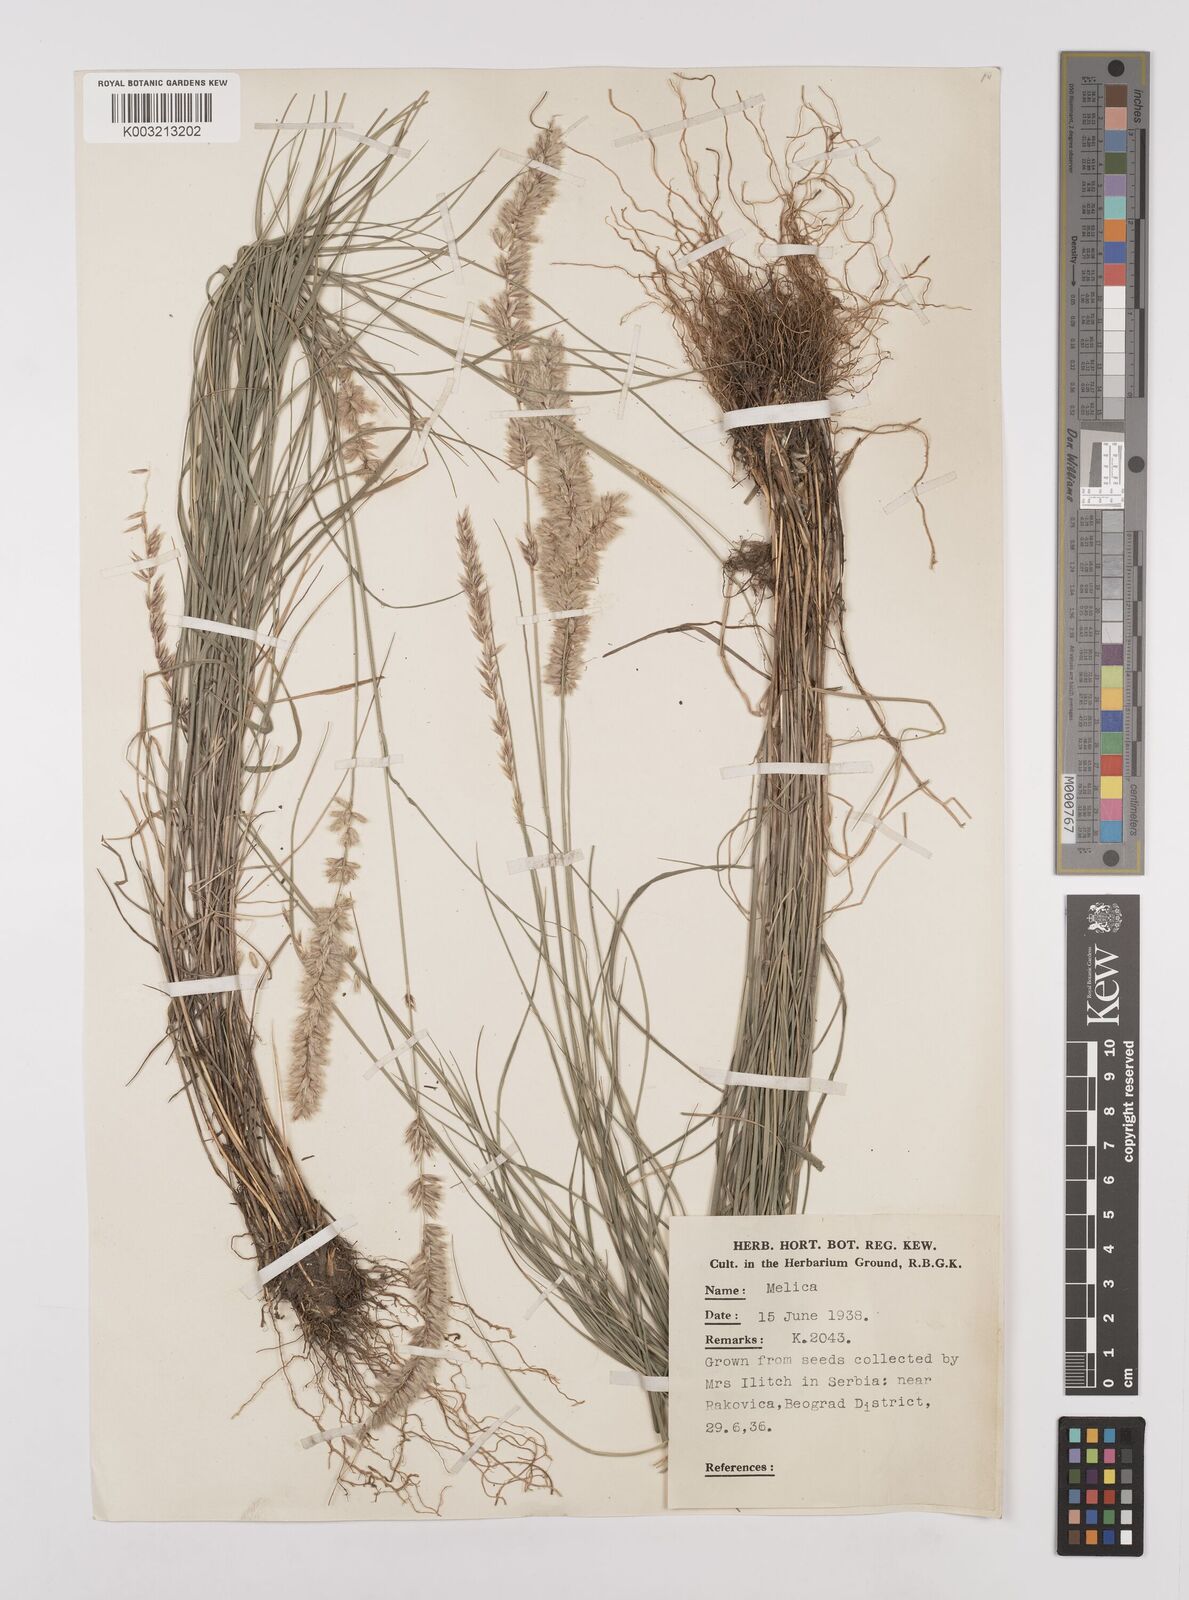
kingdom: Plantae
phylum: Tracheophyta
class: Liliopsida
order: Poales
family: Poaceae
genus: Melica
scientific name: Melica ciliata
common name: Hairy melicgrass
